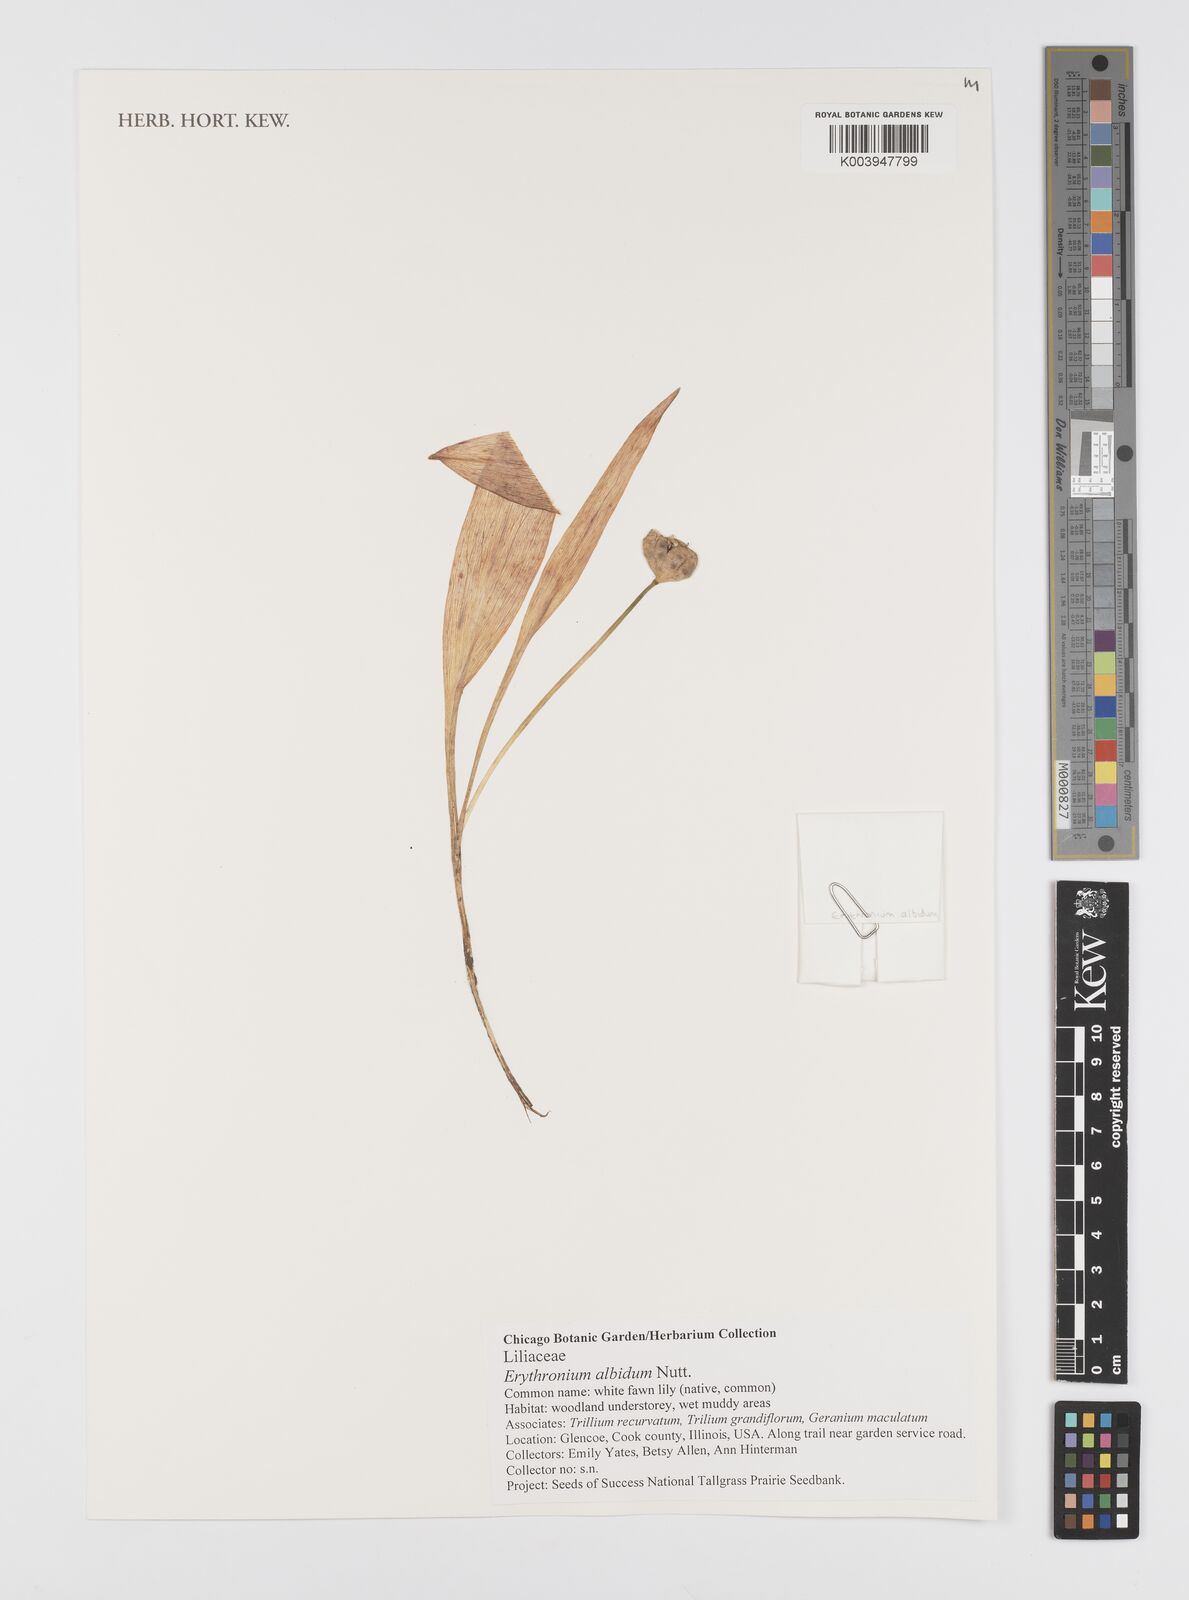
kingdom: Plantae
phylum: Tracheophyta
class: Liliopsida
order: Liliales
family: Liliaceae
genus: Erythronium
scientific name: Erythronium albidum
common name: White trout-lily
